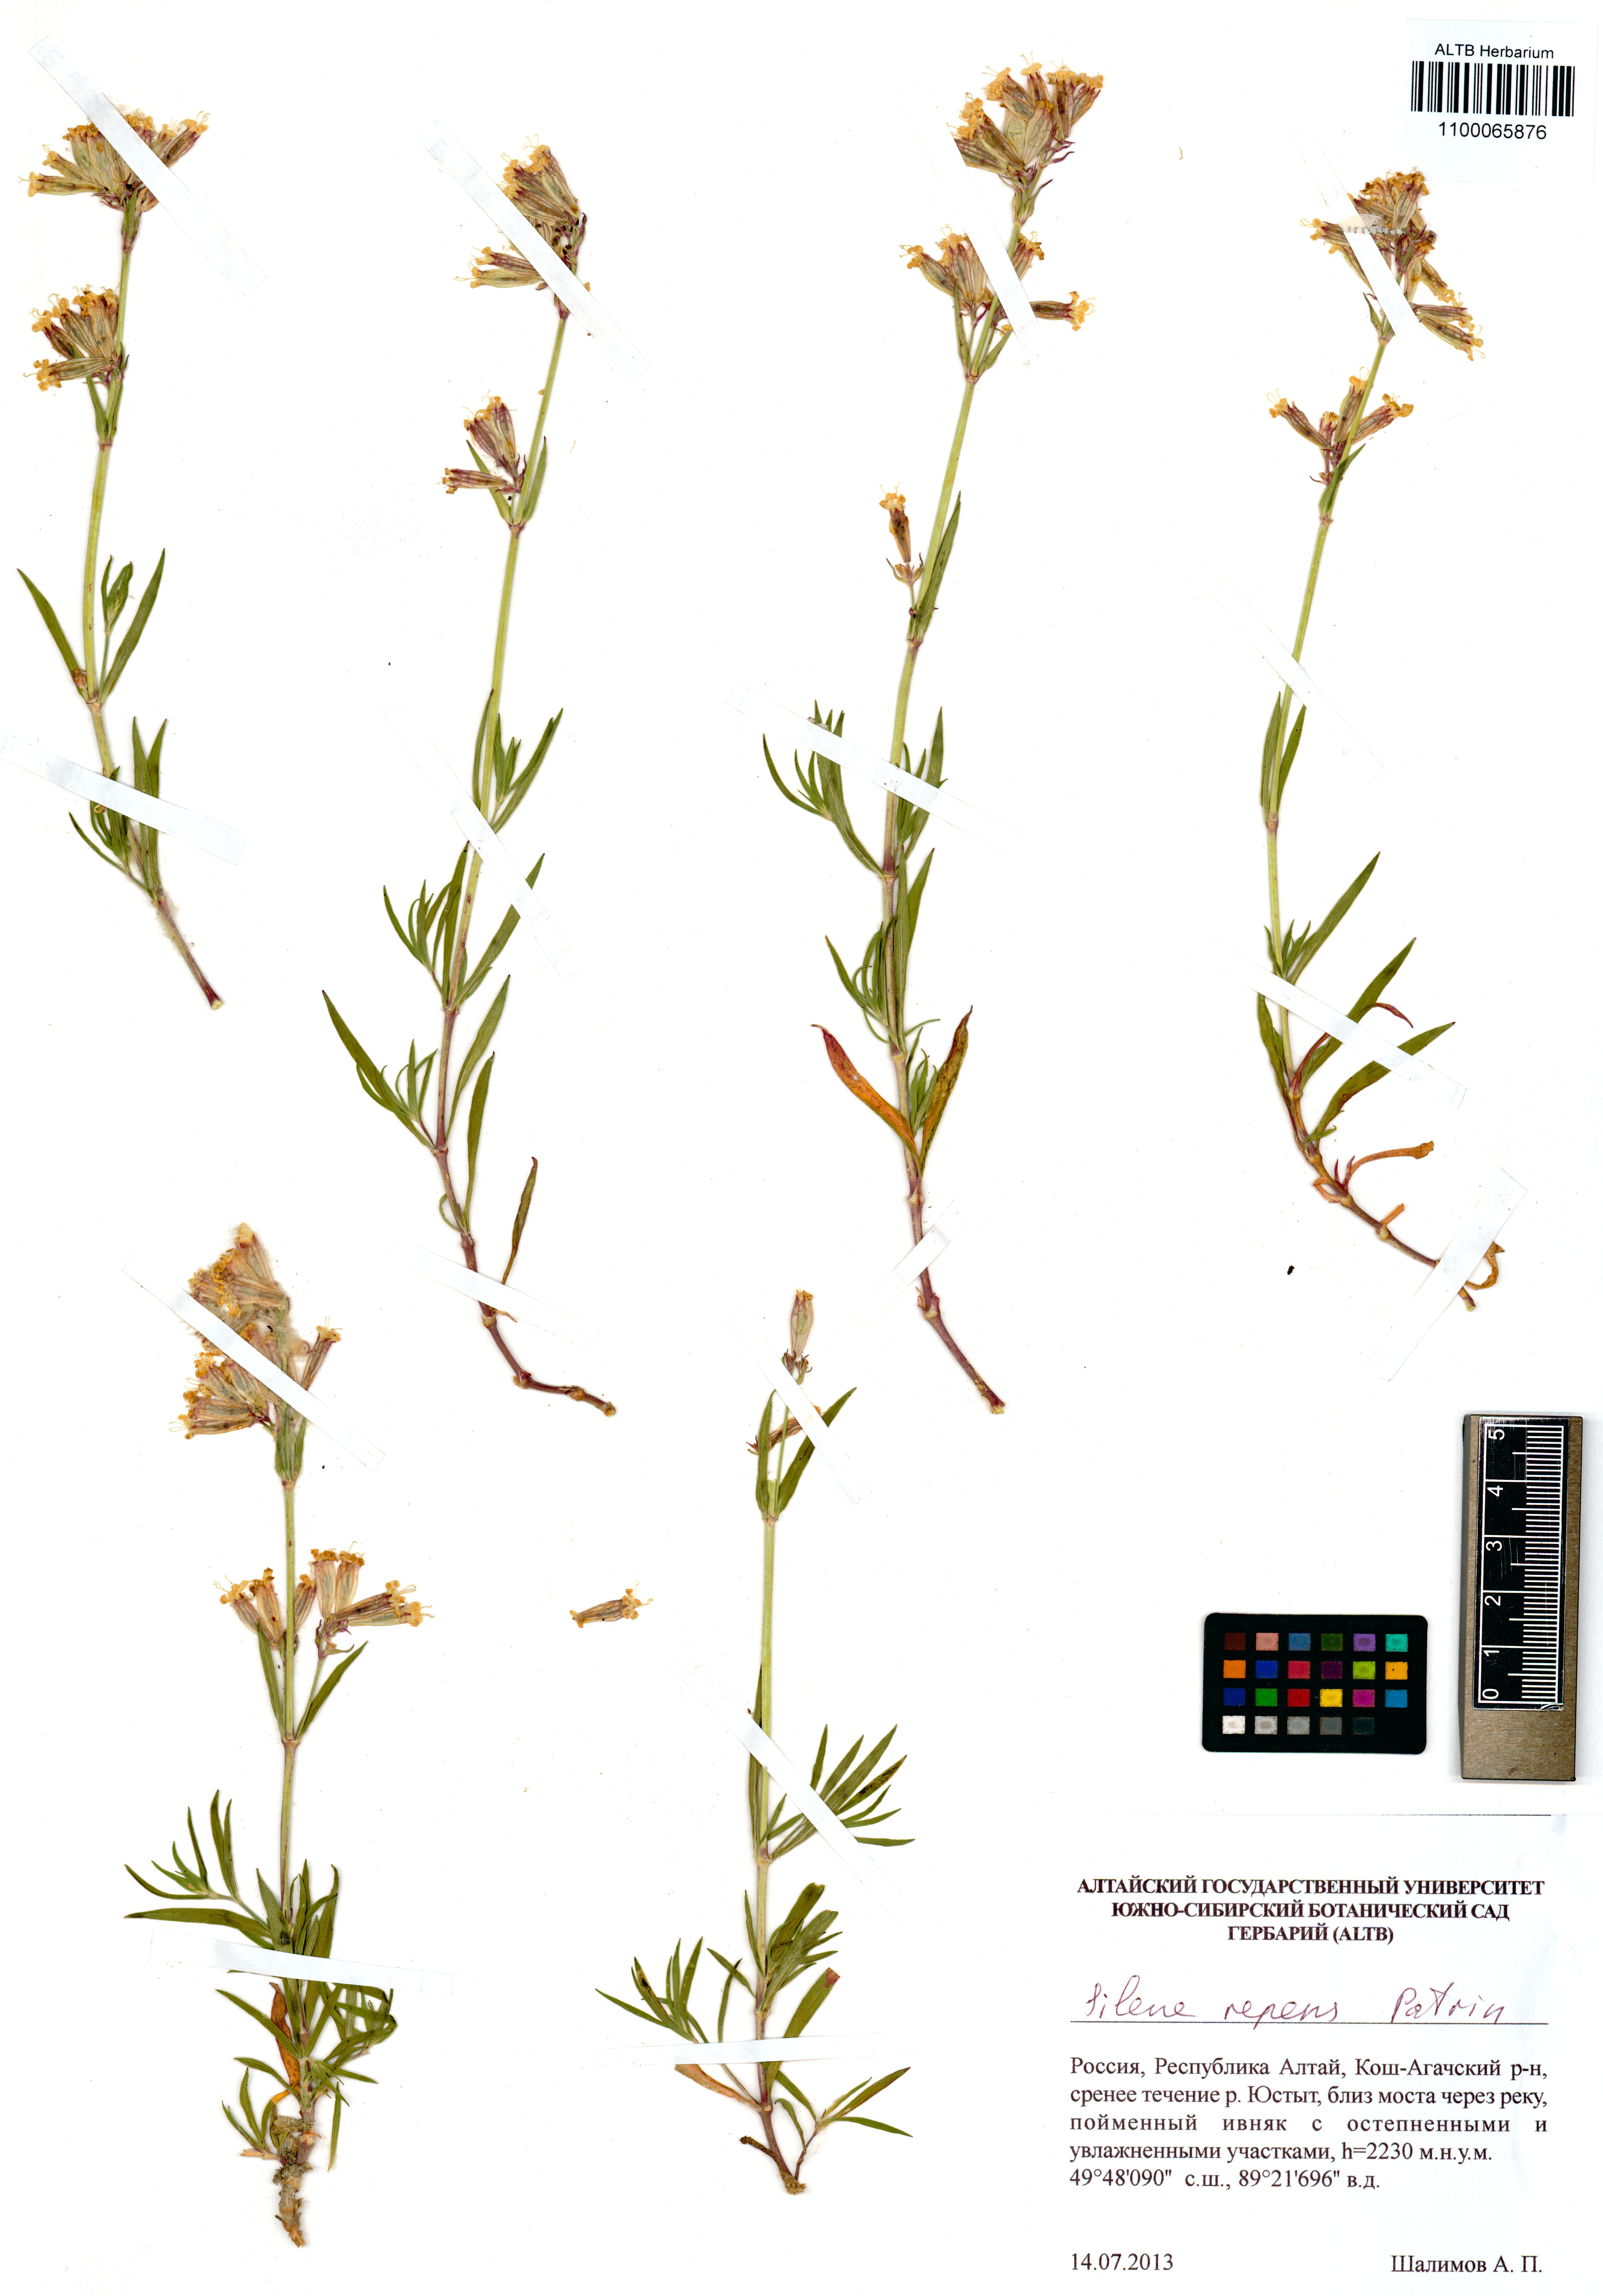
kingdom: Plantae
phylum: Tracheophyta
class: Magnoliopsida
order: Caryophyllales
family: Caryophyllaceae
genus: Silene
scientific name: Silene repens
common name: Pink campion
